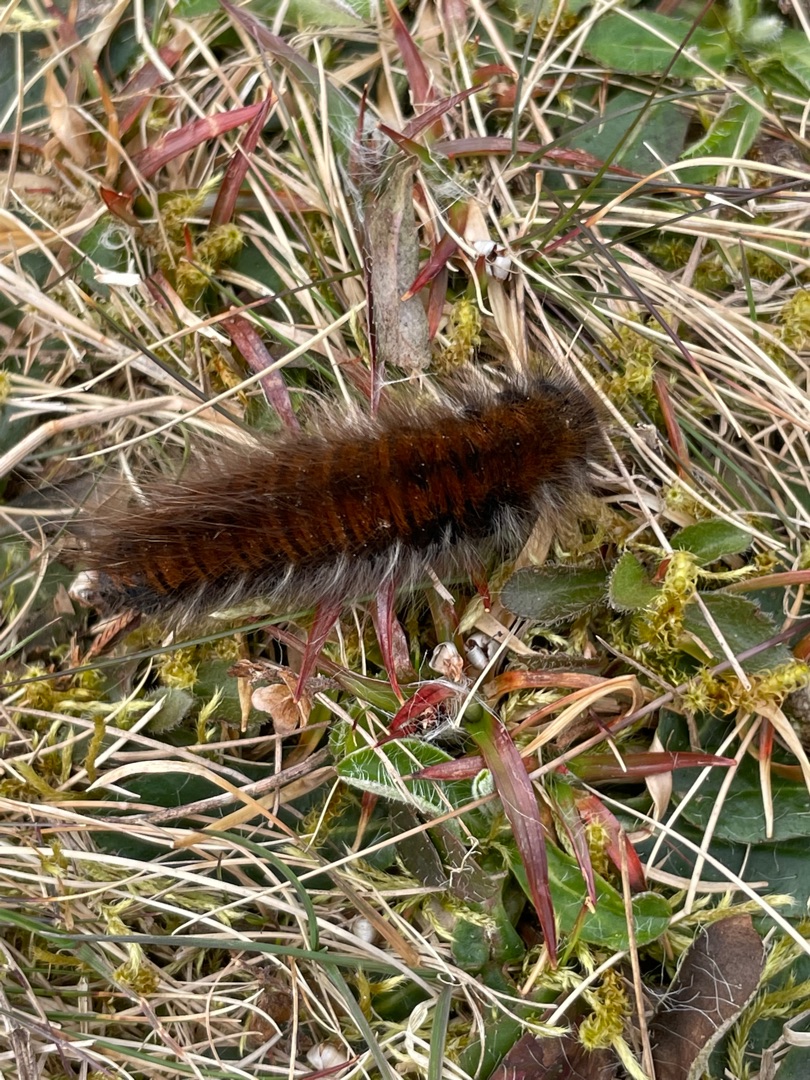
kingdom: Animalia
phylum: Arthropoda
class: Insecta
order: Lepidoptera
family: Lasiocampidae
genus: Macrothylacia
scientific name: Macrothylacia rubi
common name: Brombærspinder
